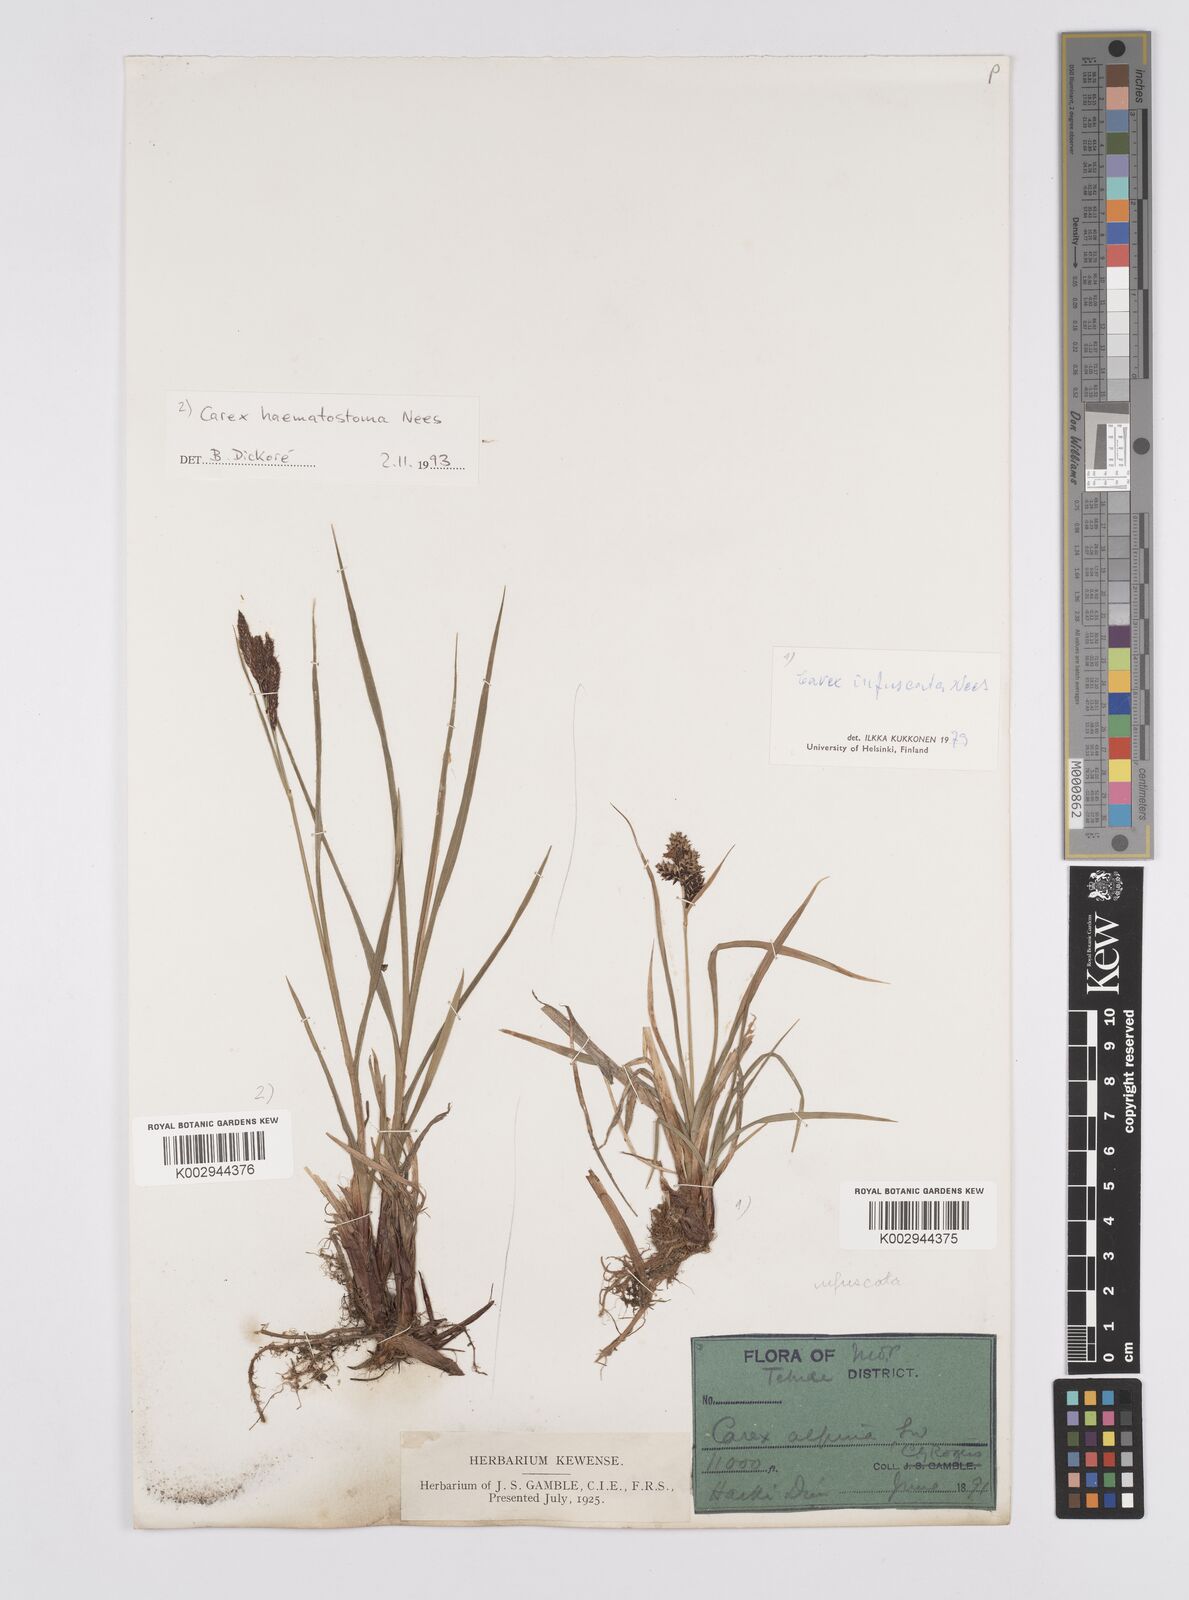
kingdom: Plantae
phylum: Tracheophyta
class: Liliopsida
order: Poales
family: Cyperaceae
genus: Carex
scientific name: Carex norvegica
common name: Close-headed alpine-sedge
